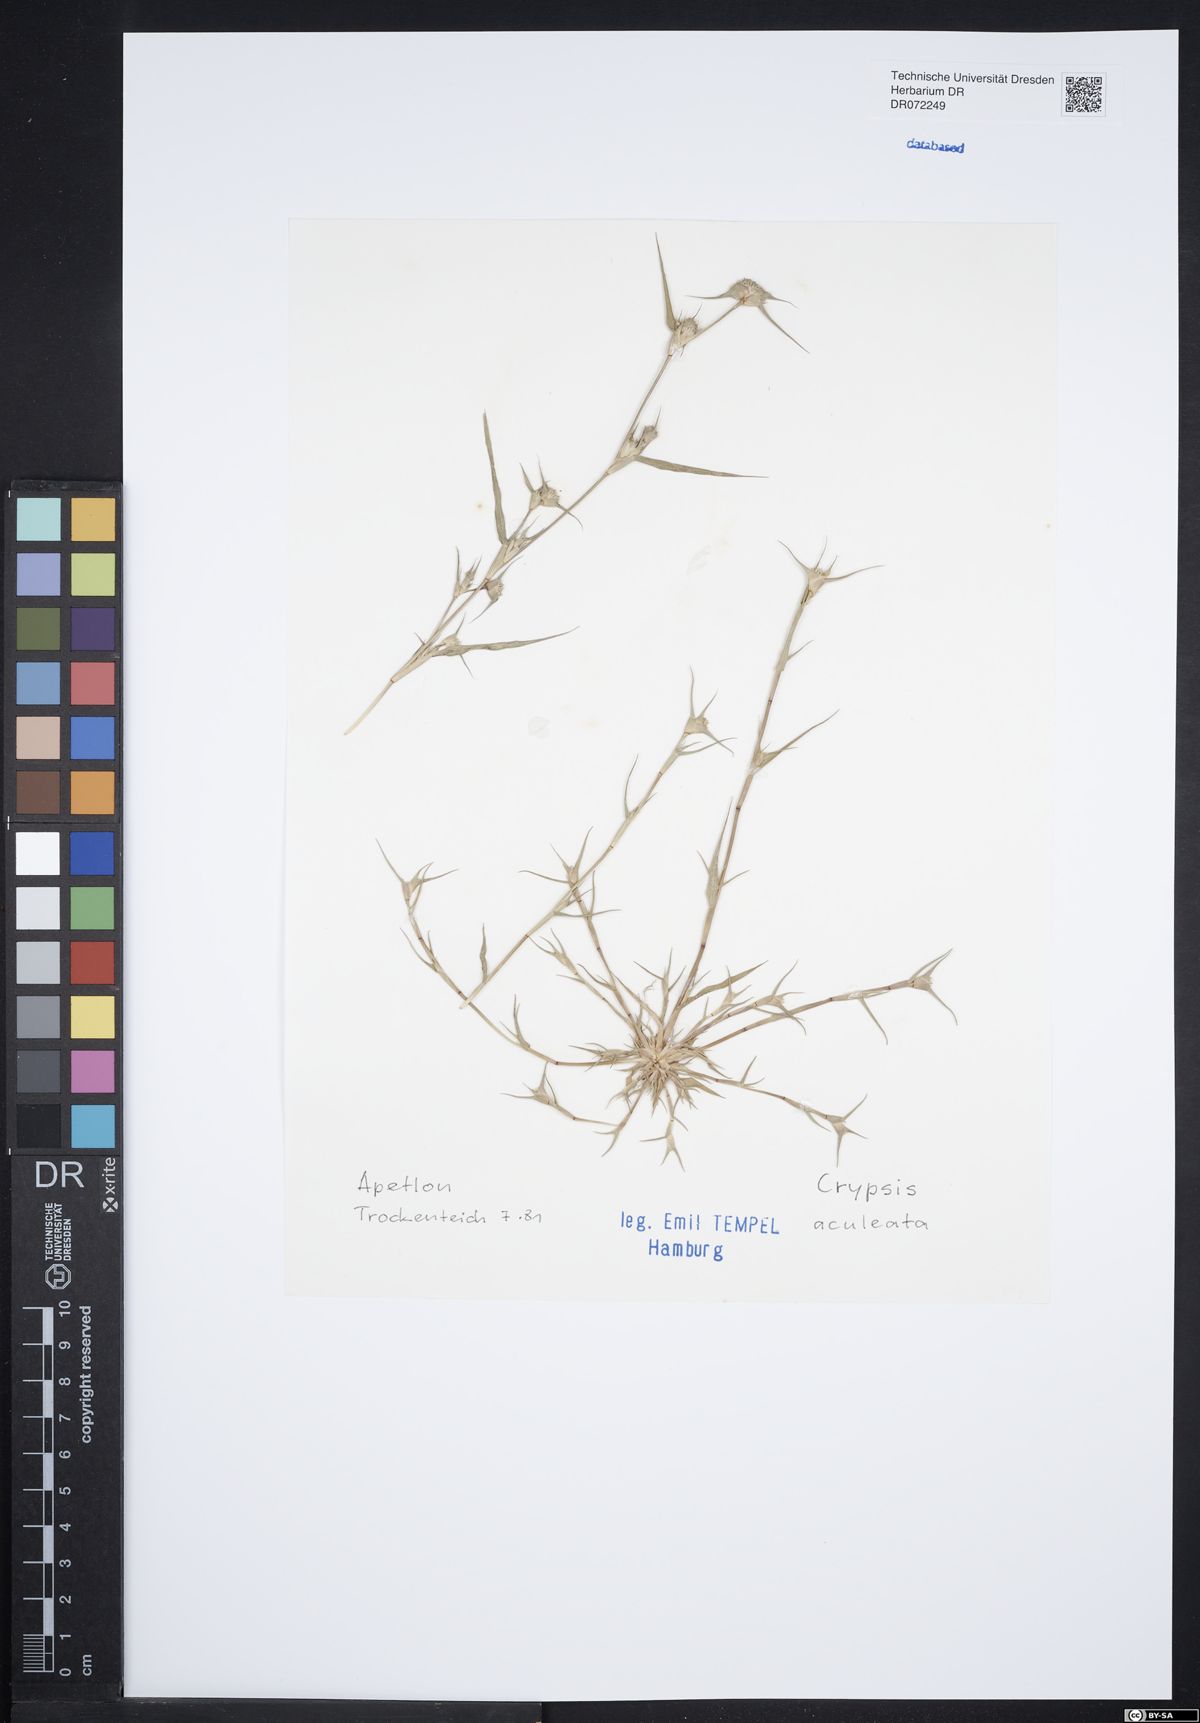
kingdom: Plantae
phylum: Tracheophyta
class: Liliopsida
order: Poales
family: Poaceae
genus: Sporobolus
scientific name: Sporobolus aculeatus
